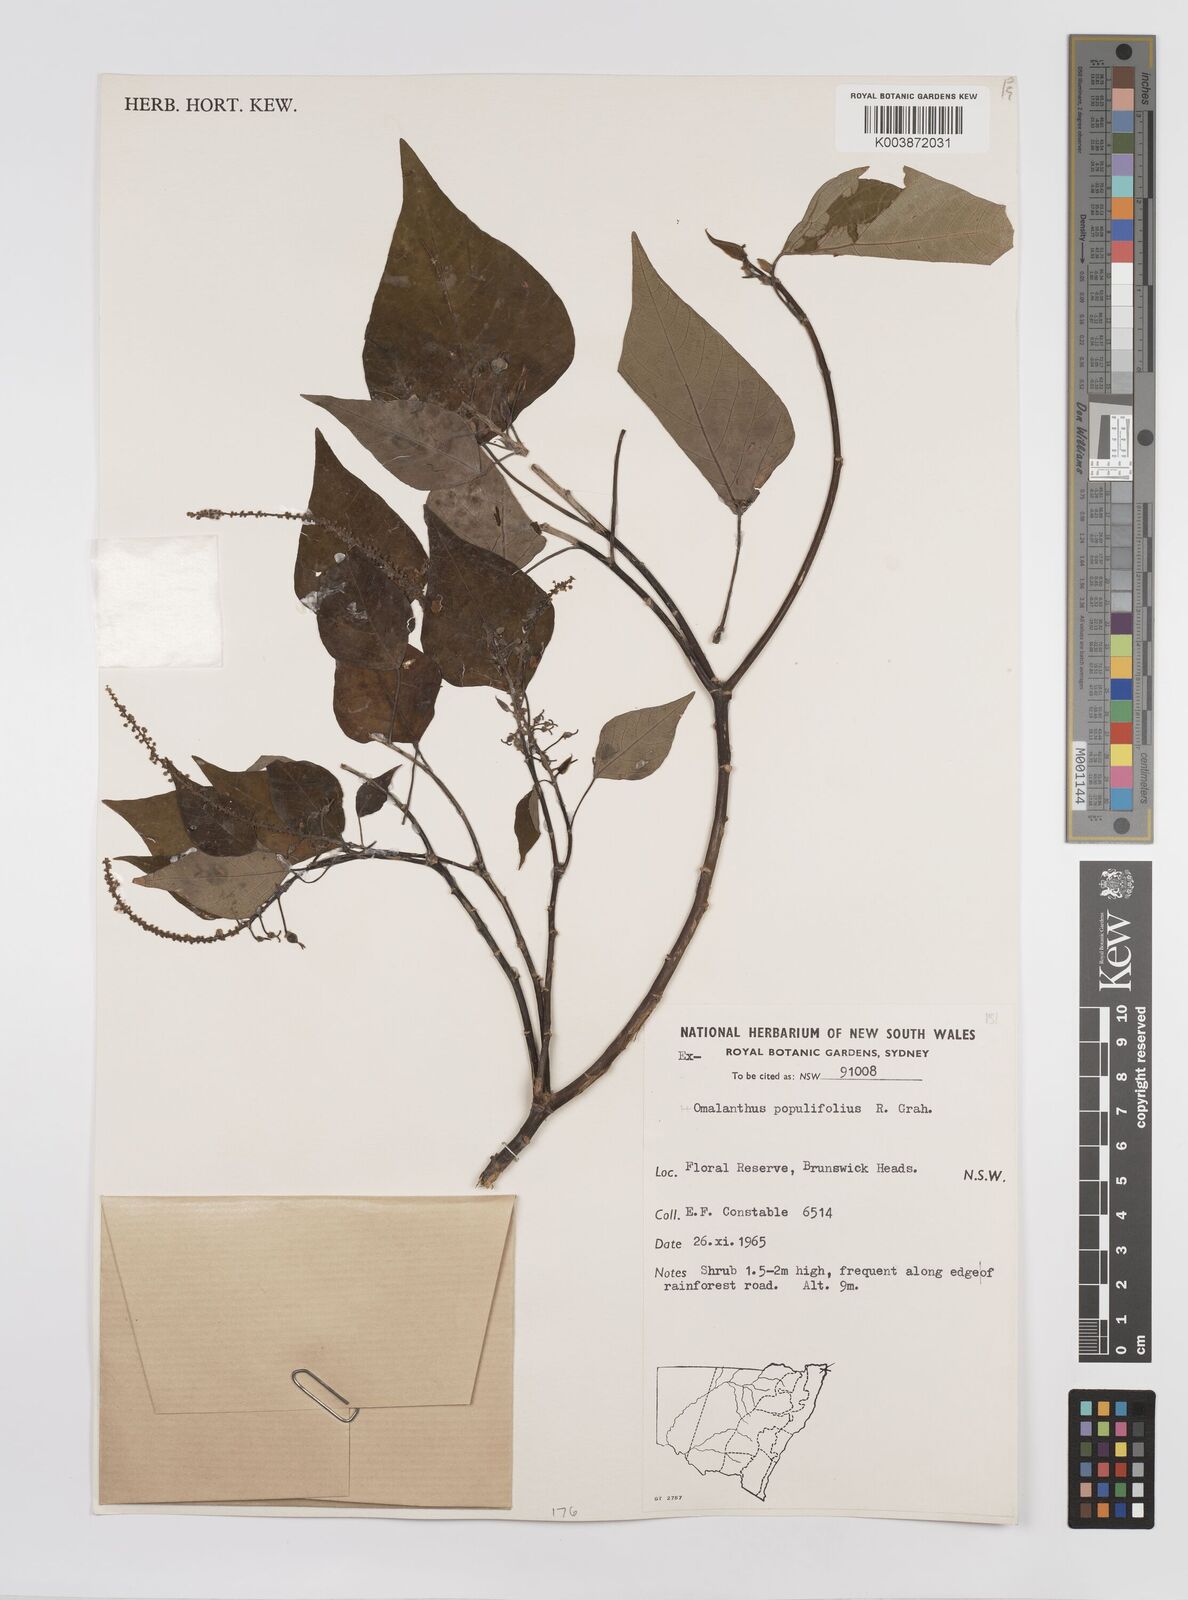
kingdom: Plantae
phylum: Tracheophyta
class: Magnoliopsida
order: Malpighiales
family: Euphorbiaceae
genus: Homalanthus
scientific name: Homalanthus populifolius
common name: Queensland poplar
